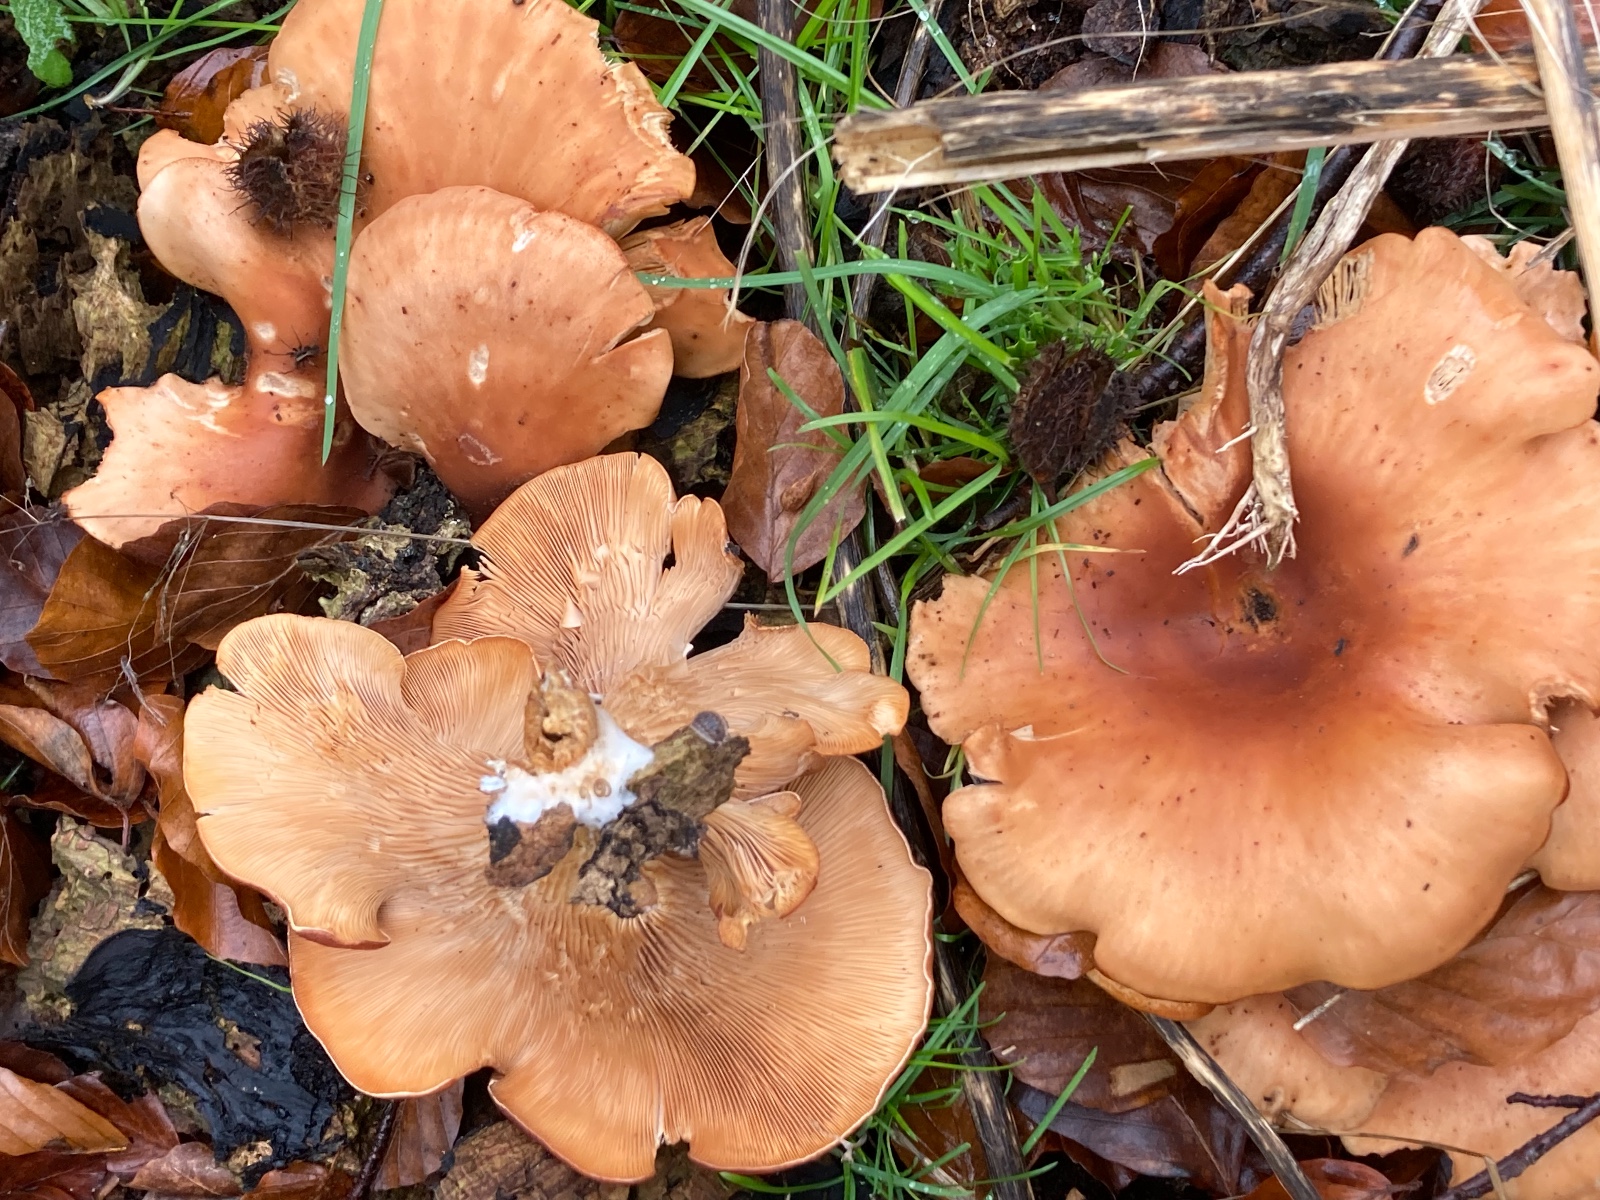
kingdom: Fungi
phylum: Basidiomycota
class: Agaricomycetes
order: Agaricales
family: Tricholomataceae
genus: Paralepista
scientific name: Paralepista flaccida
